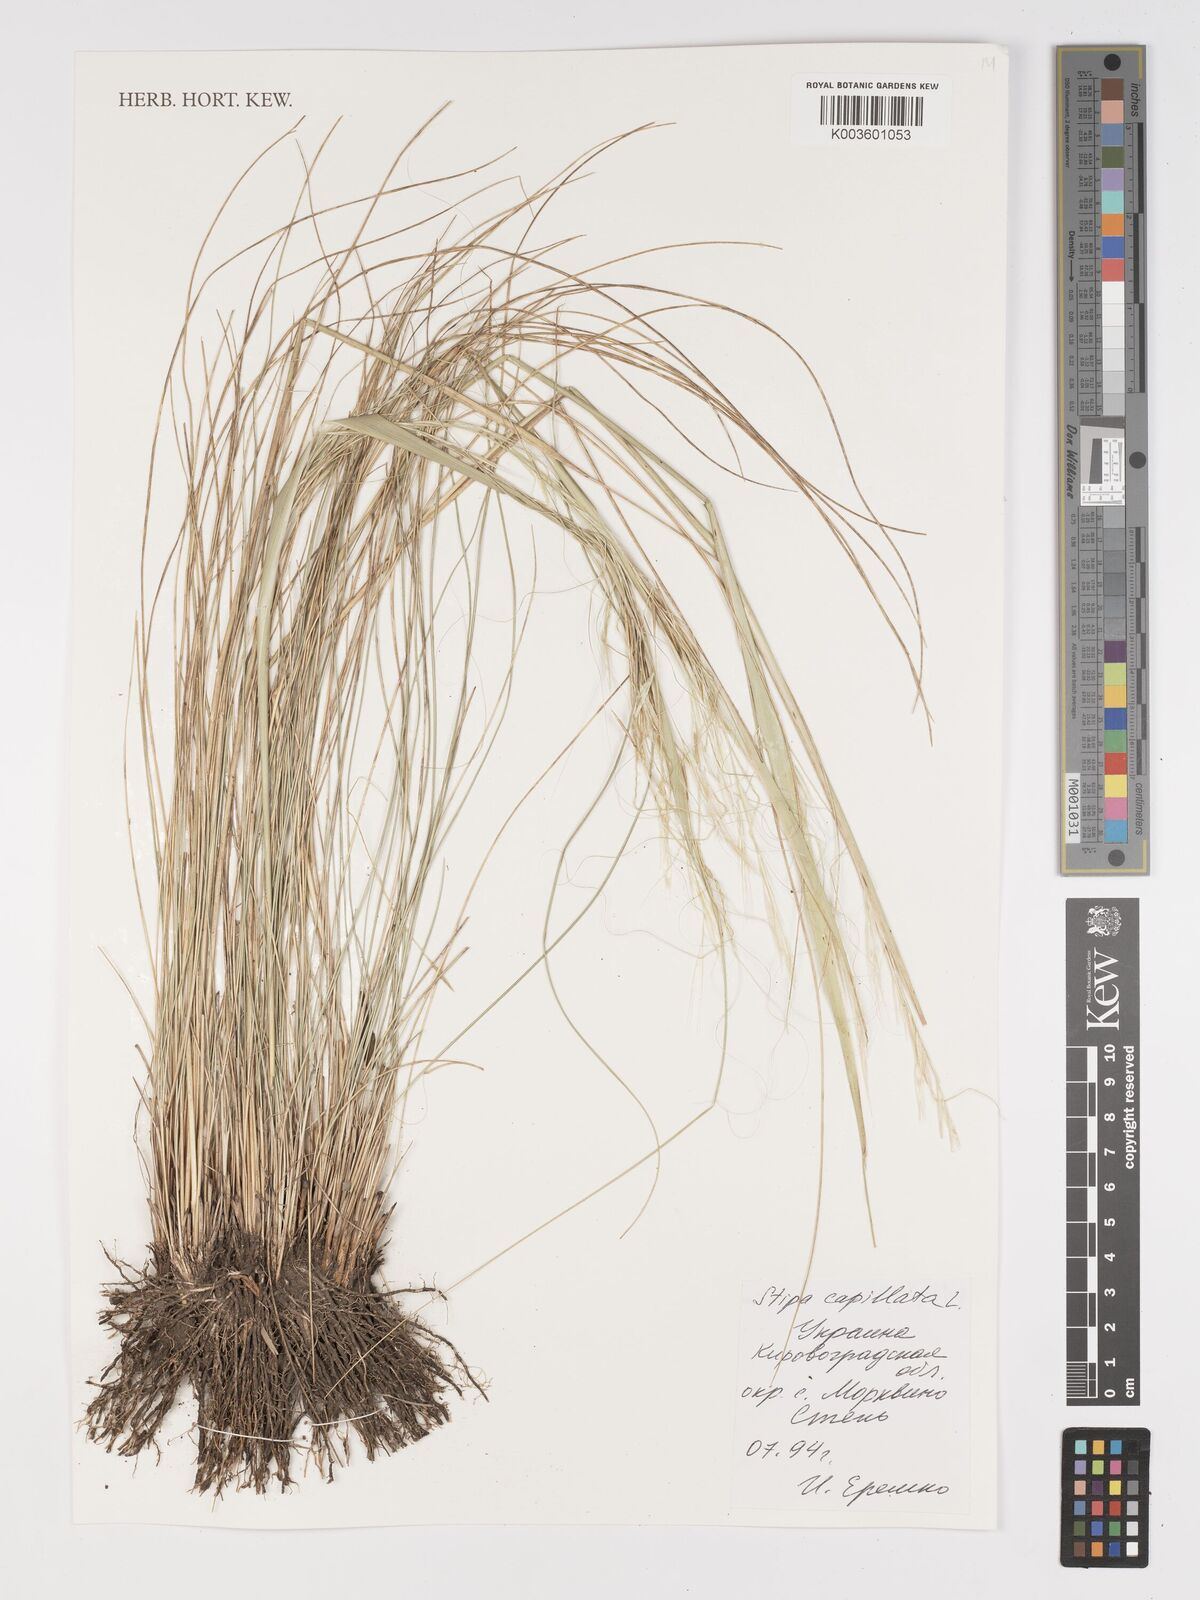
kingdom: Plantae
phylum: Tracheophyta
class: Liliopsida
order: Poales
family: Poaceae
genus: Stipa
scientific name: Stipa capillata
